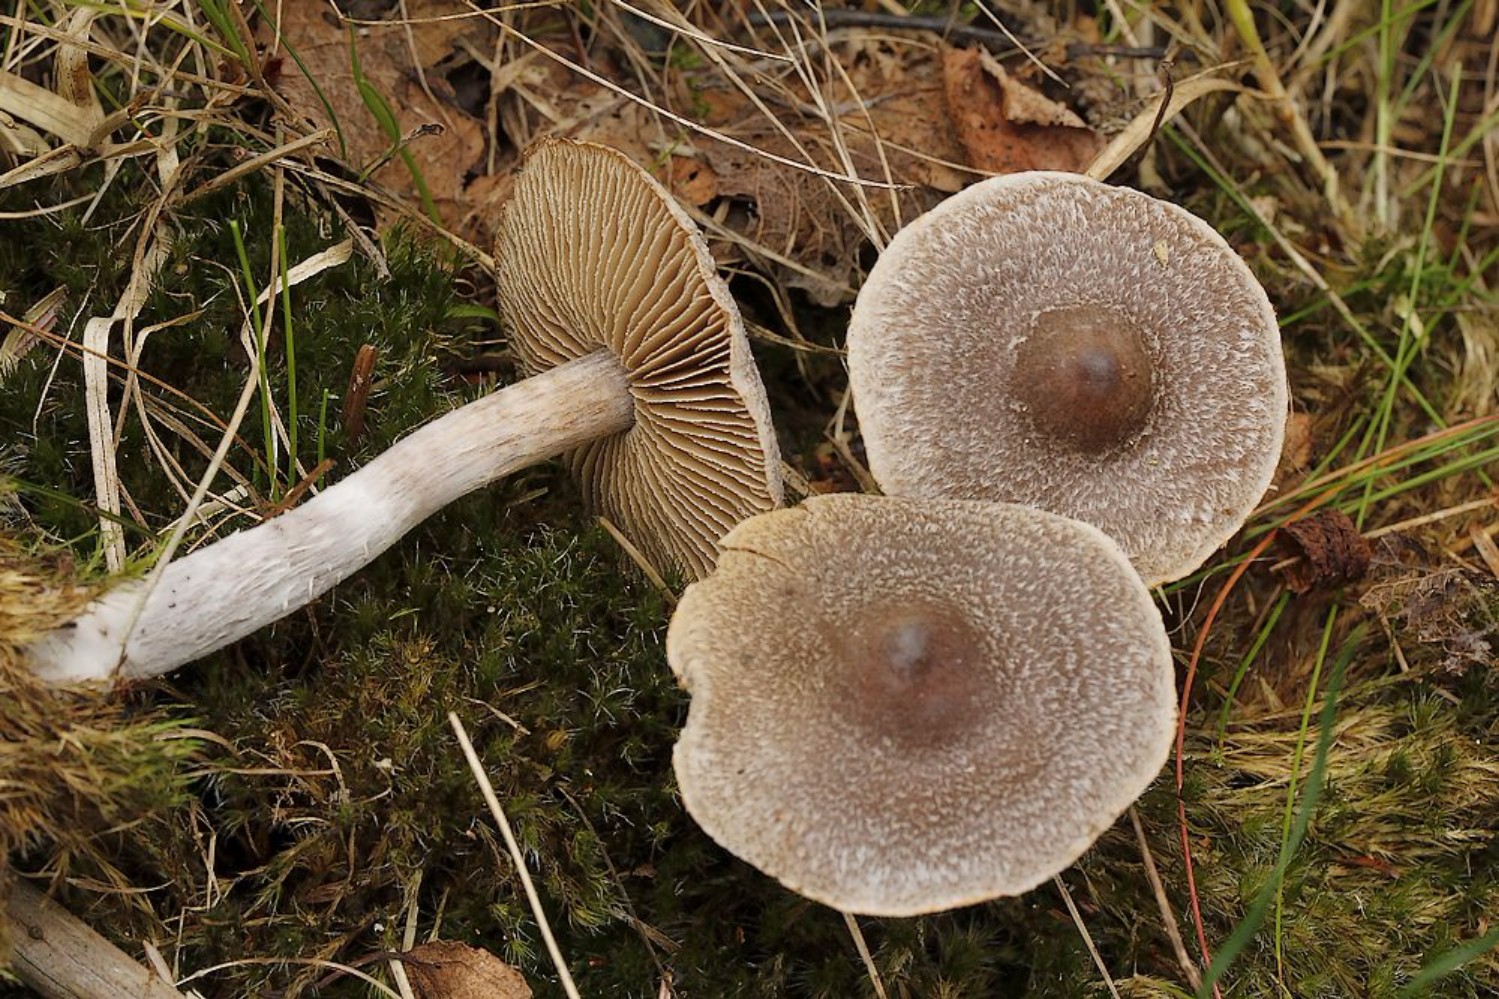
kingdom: Fungi
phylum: Basidiomycota
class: Agaricomycetes
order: Agaricales
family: Cortinariaceae
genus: Cortinarius
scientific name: Cortinarius
